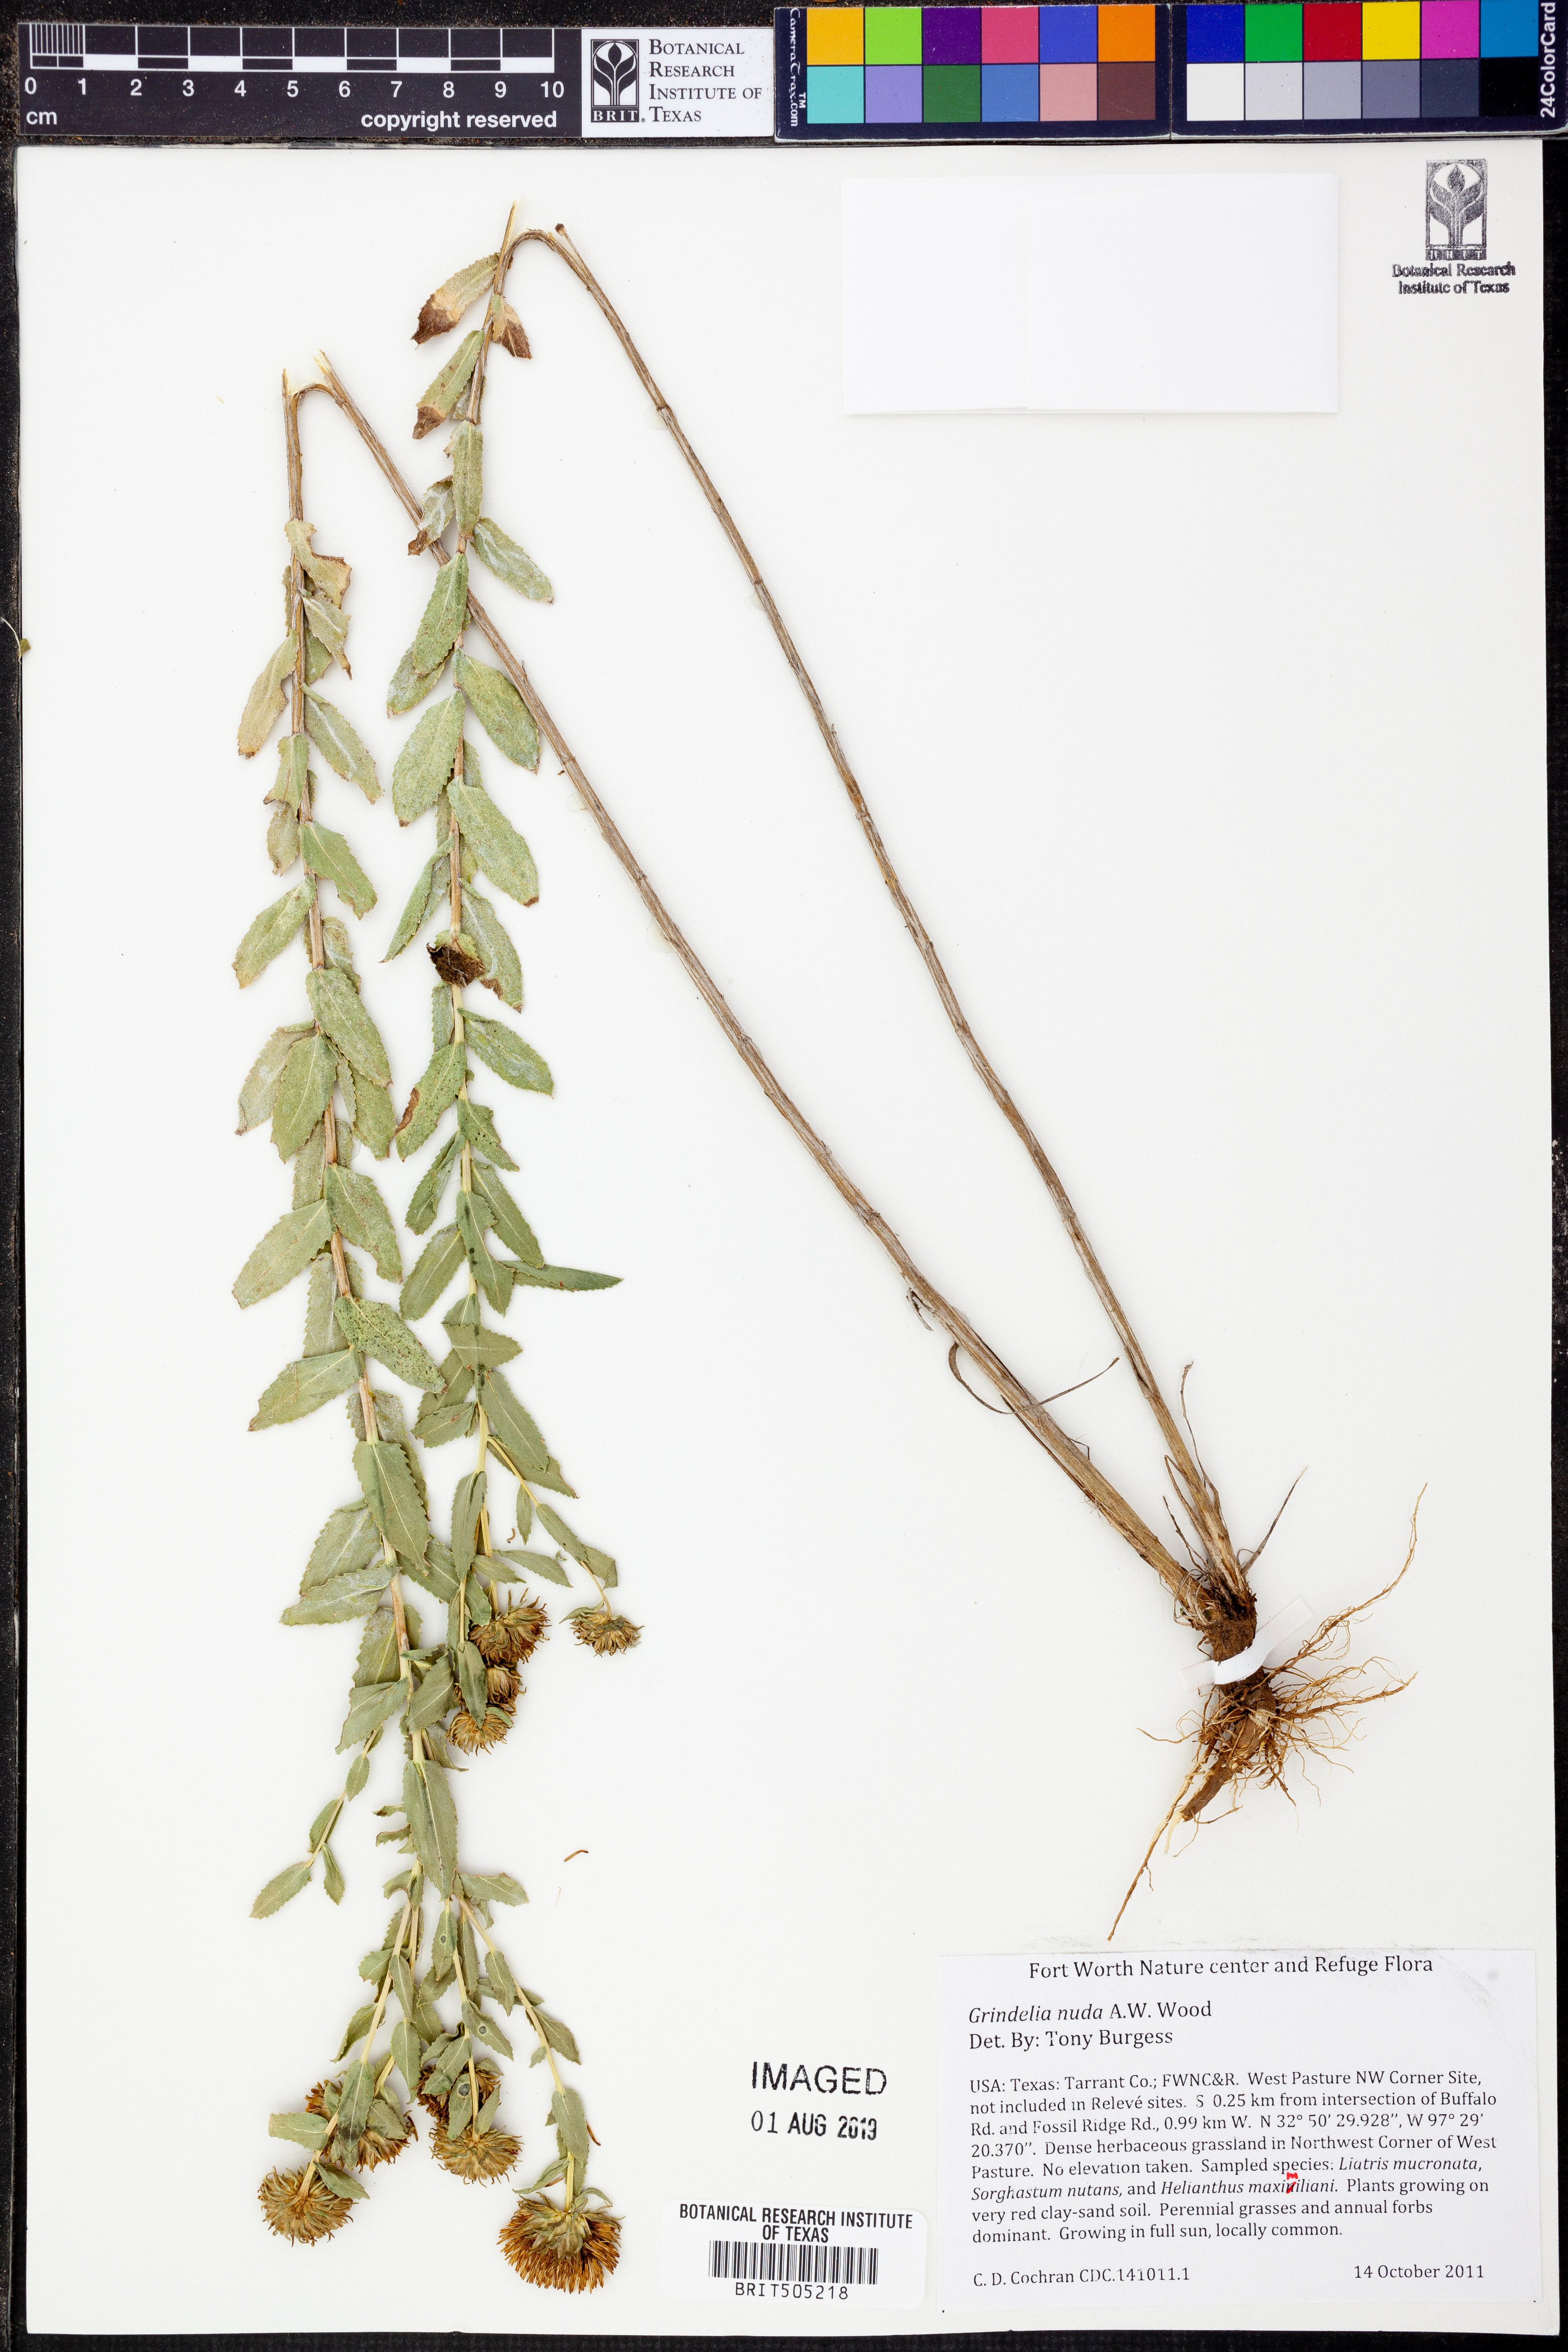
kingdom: Plantae
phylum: Tracheophyta
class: Magnoliopsida
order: Asterales
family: Asteraceae
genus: Grindelia
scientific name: Grindelia nuda
